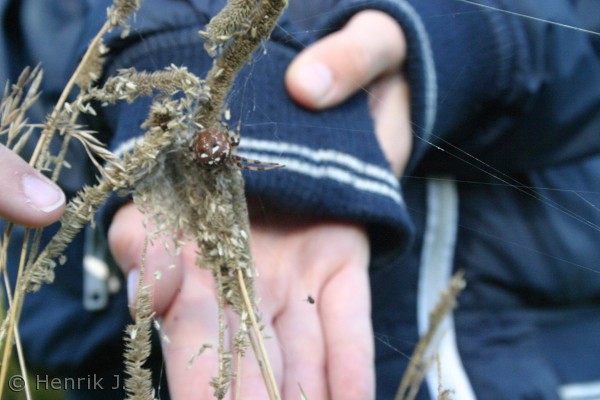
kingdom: Animalia
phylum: Arthropoda
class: Arachnida
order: Araneae
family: Araneidae
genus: Araneus
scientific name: Araneus quadratus
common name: Kvadratedderkop
